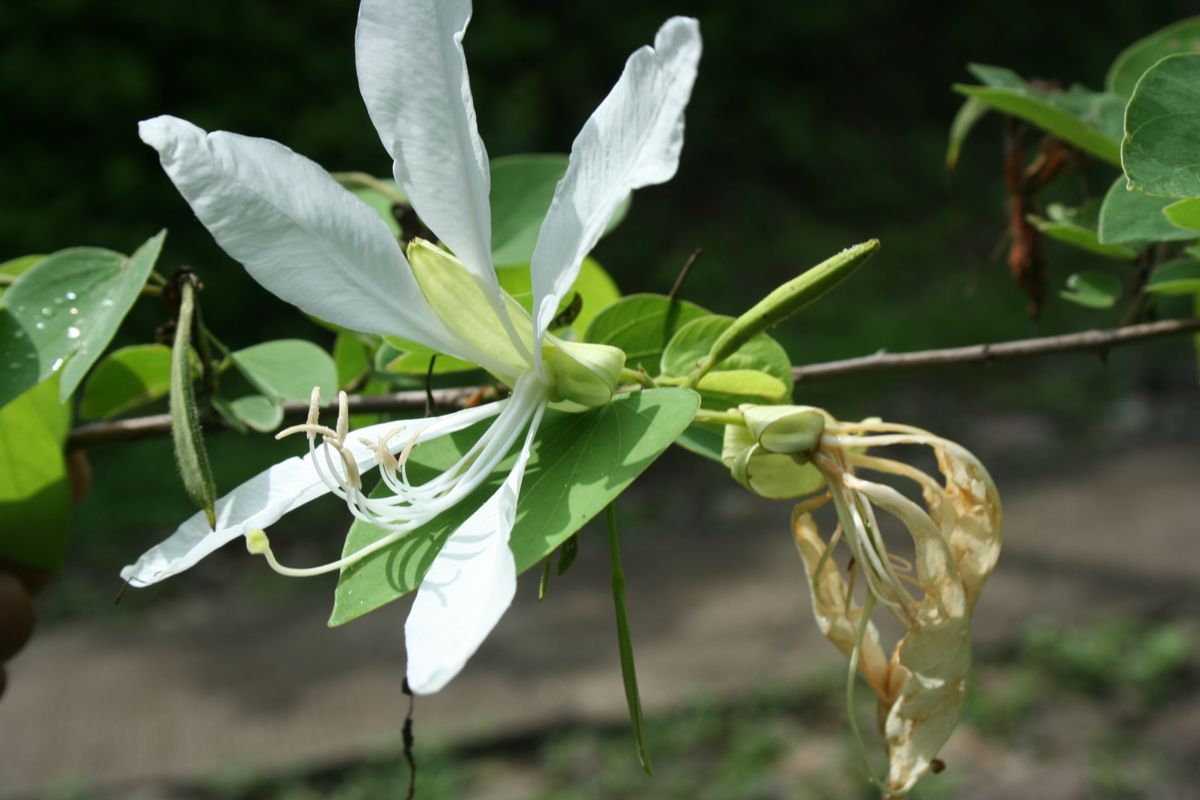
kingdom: Plantae
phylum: Tracheophyta
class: Magnoliopsida
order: Fabales
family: Fabaceae
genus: Bauhinia
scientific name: Bauhinia aculeata
